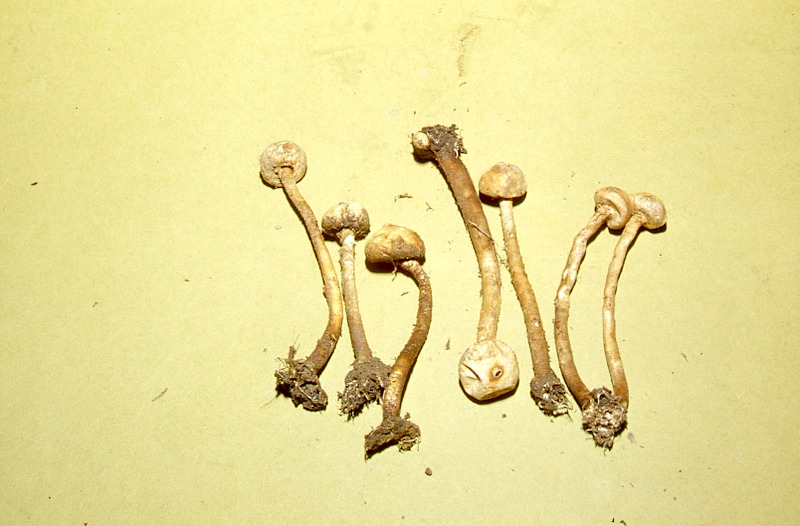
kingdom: Fungi
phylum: Basidiomycota
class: Agaricomycetes
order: Agaricales
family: Agaricaceae
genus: Tulostoma
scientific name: Tulostoma brumale
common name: Winter stalk puffball
